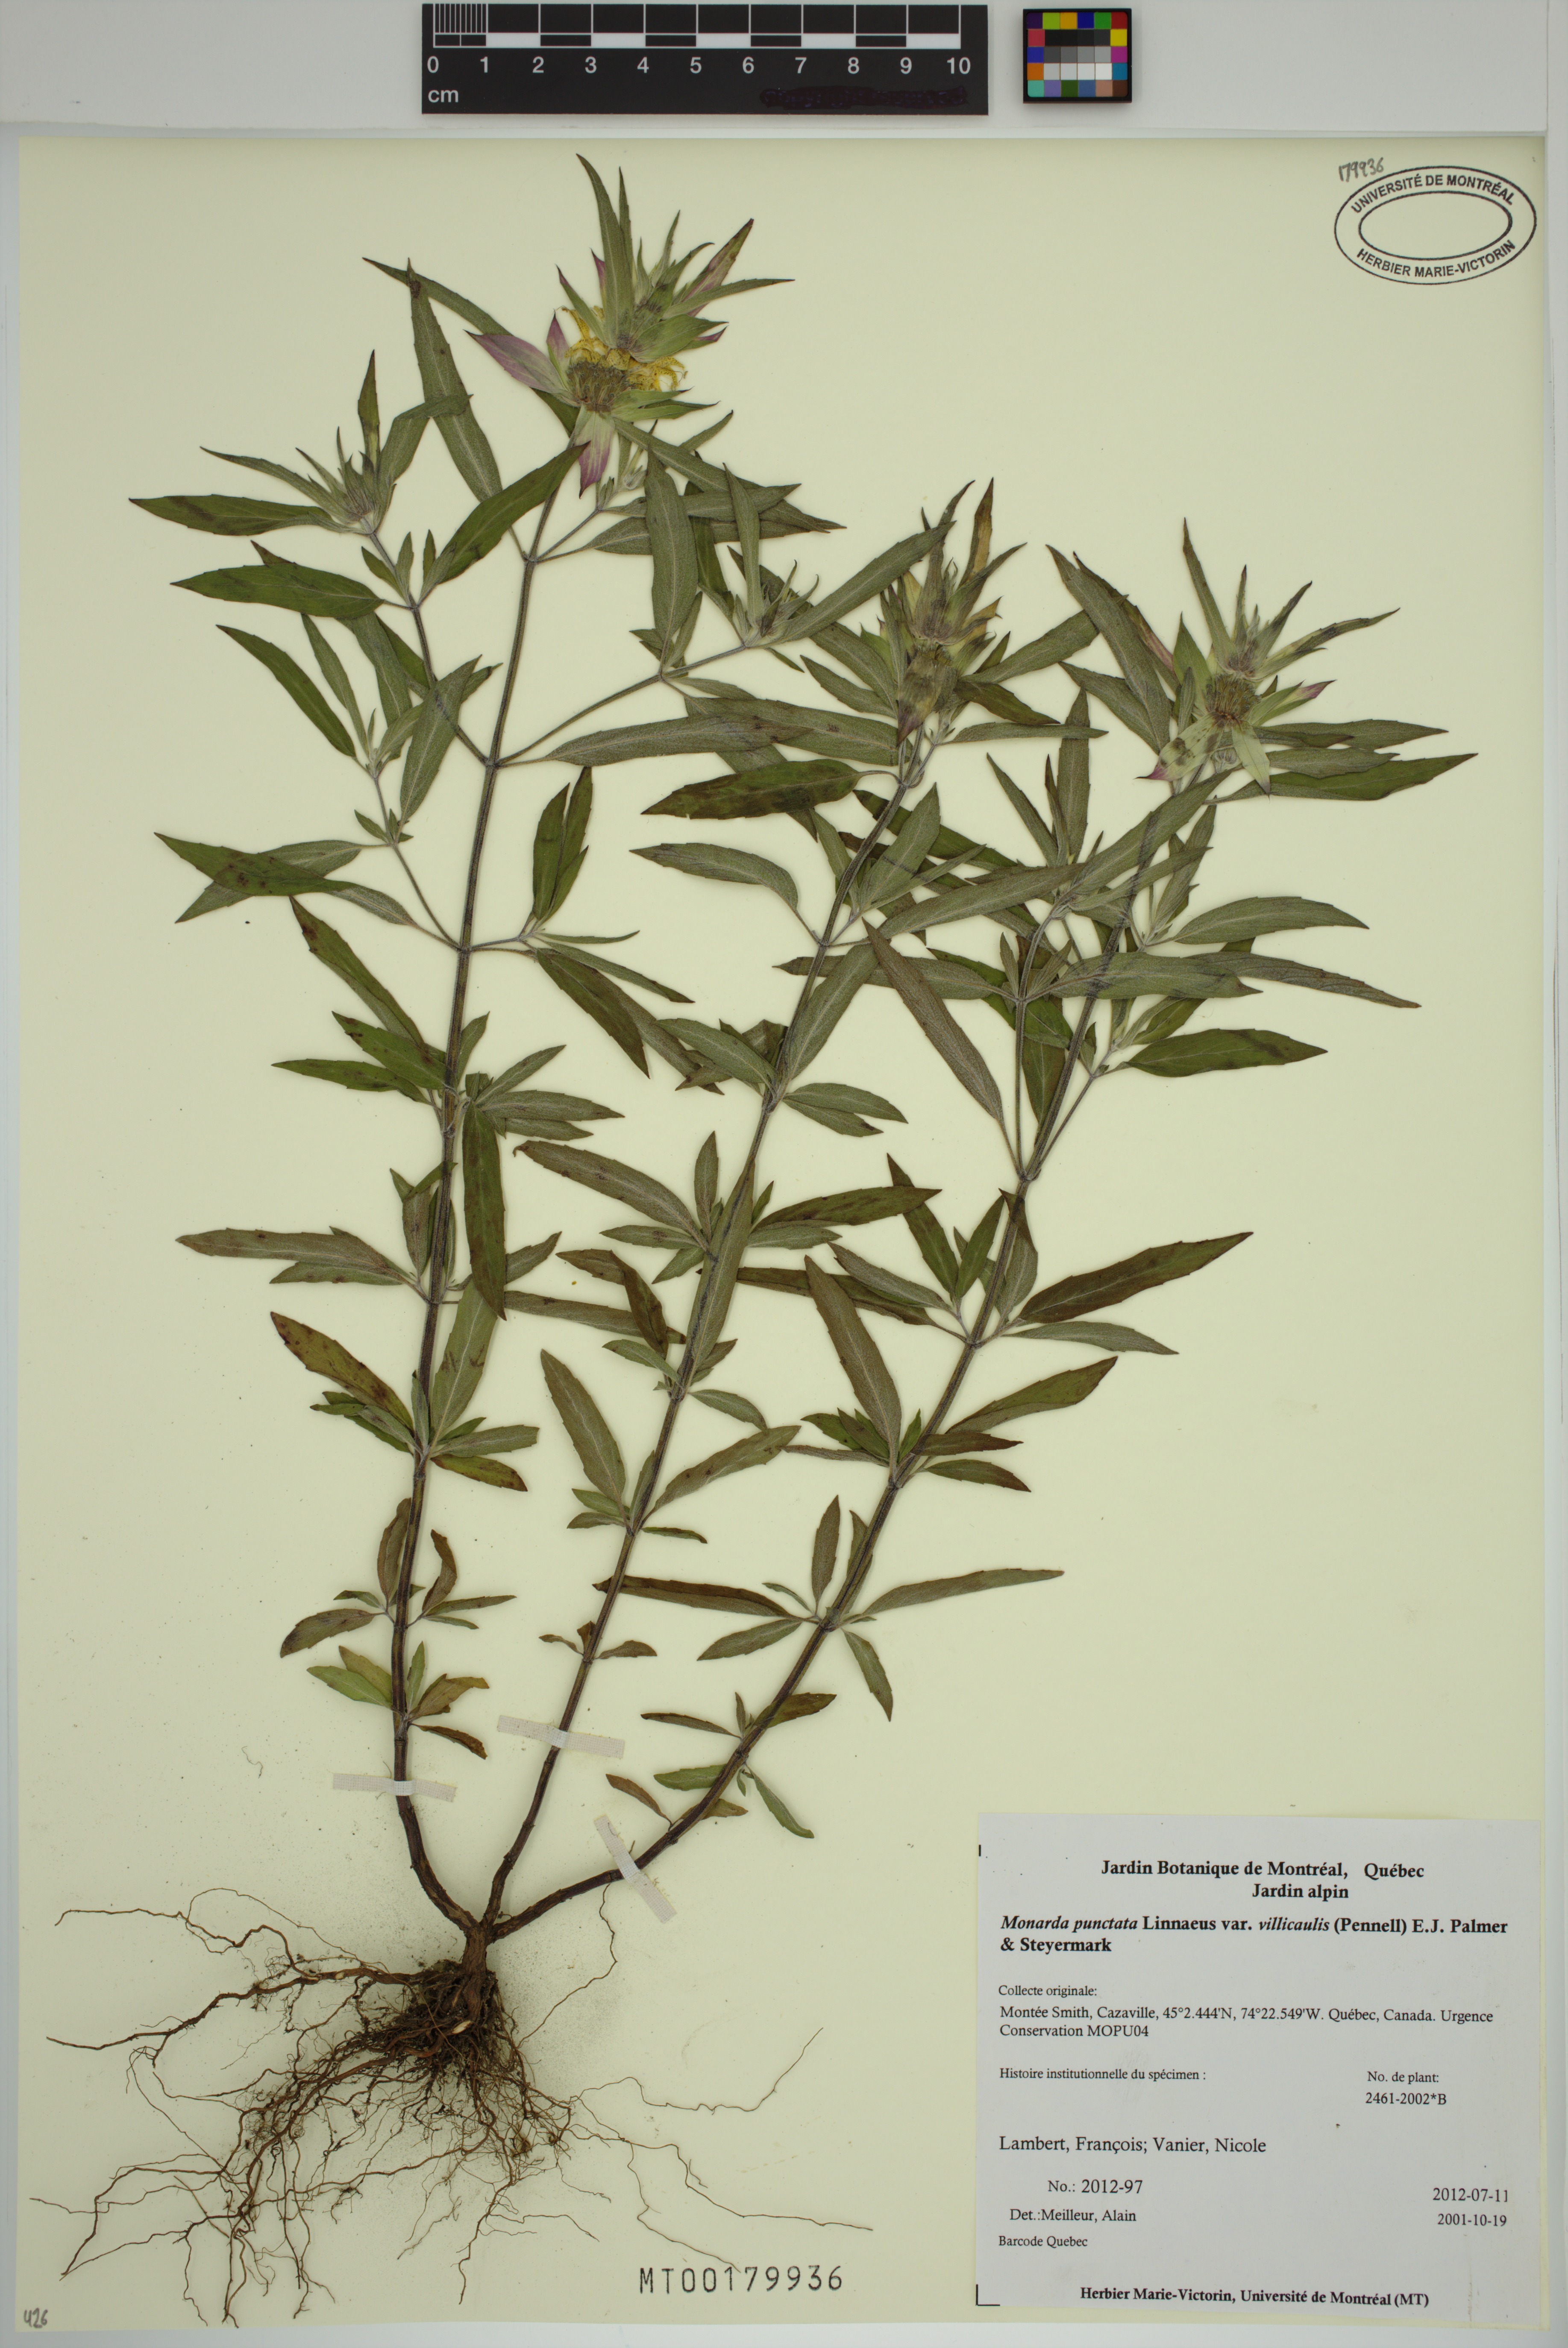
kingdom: Plantae
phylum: Tracheophyta
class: Magnoliopsida
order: Lamiales
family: Lamiaceae
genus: Monarda
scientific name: Monarda punctata
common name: Dotted monarda
